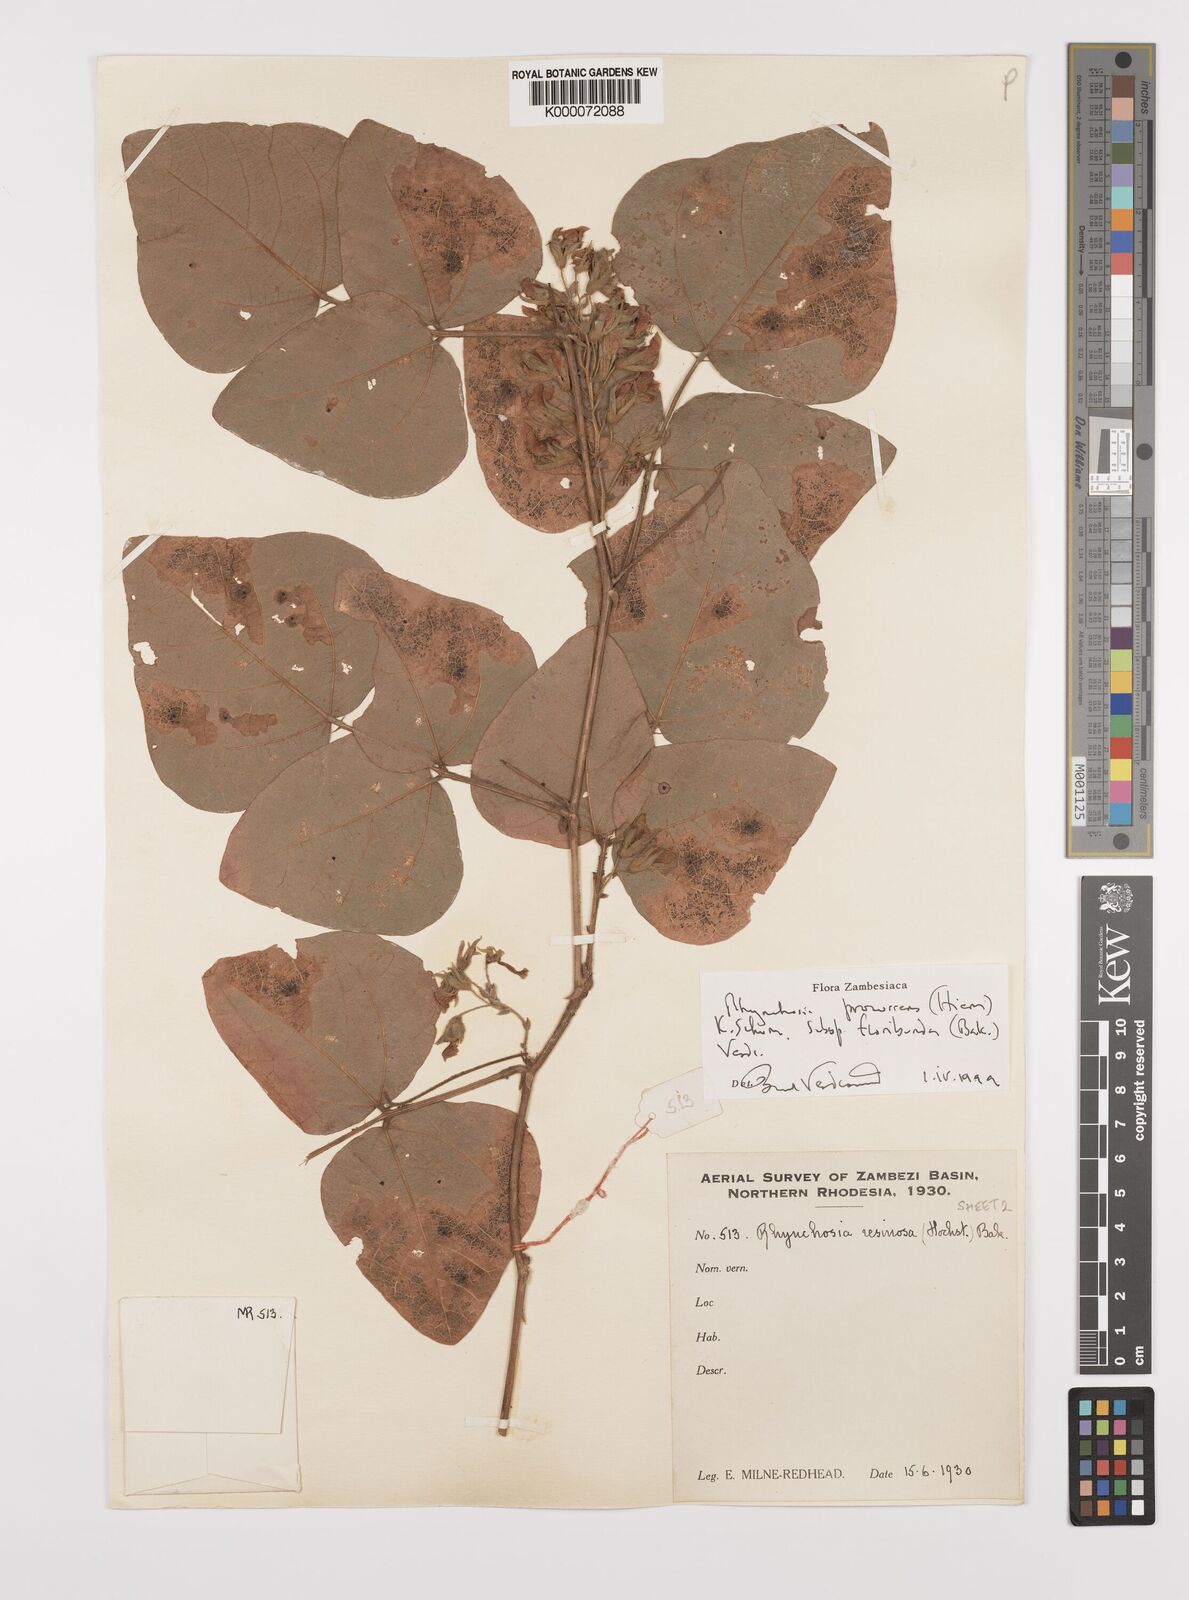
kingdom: Plantae
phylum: Tracheophyta
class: Magnoliopsida
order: Fabales
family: Fabaceae
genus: Rhynchosia
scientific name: Rhynchosia procurrens
